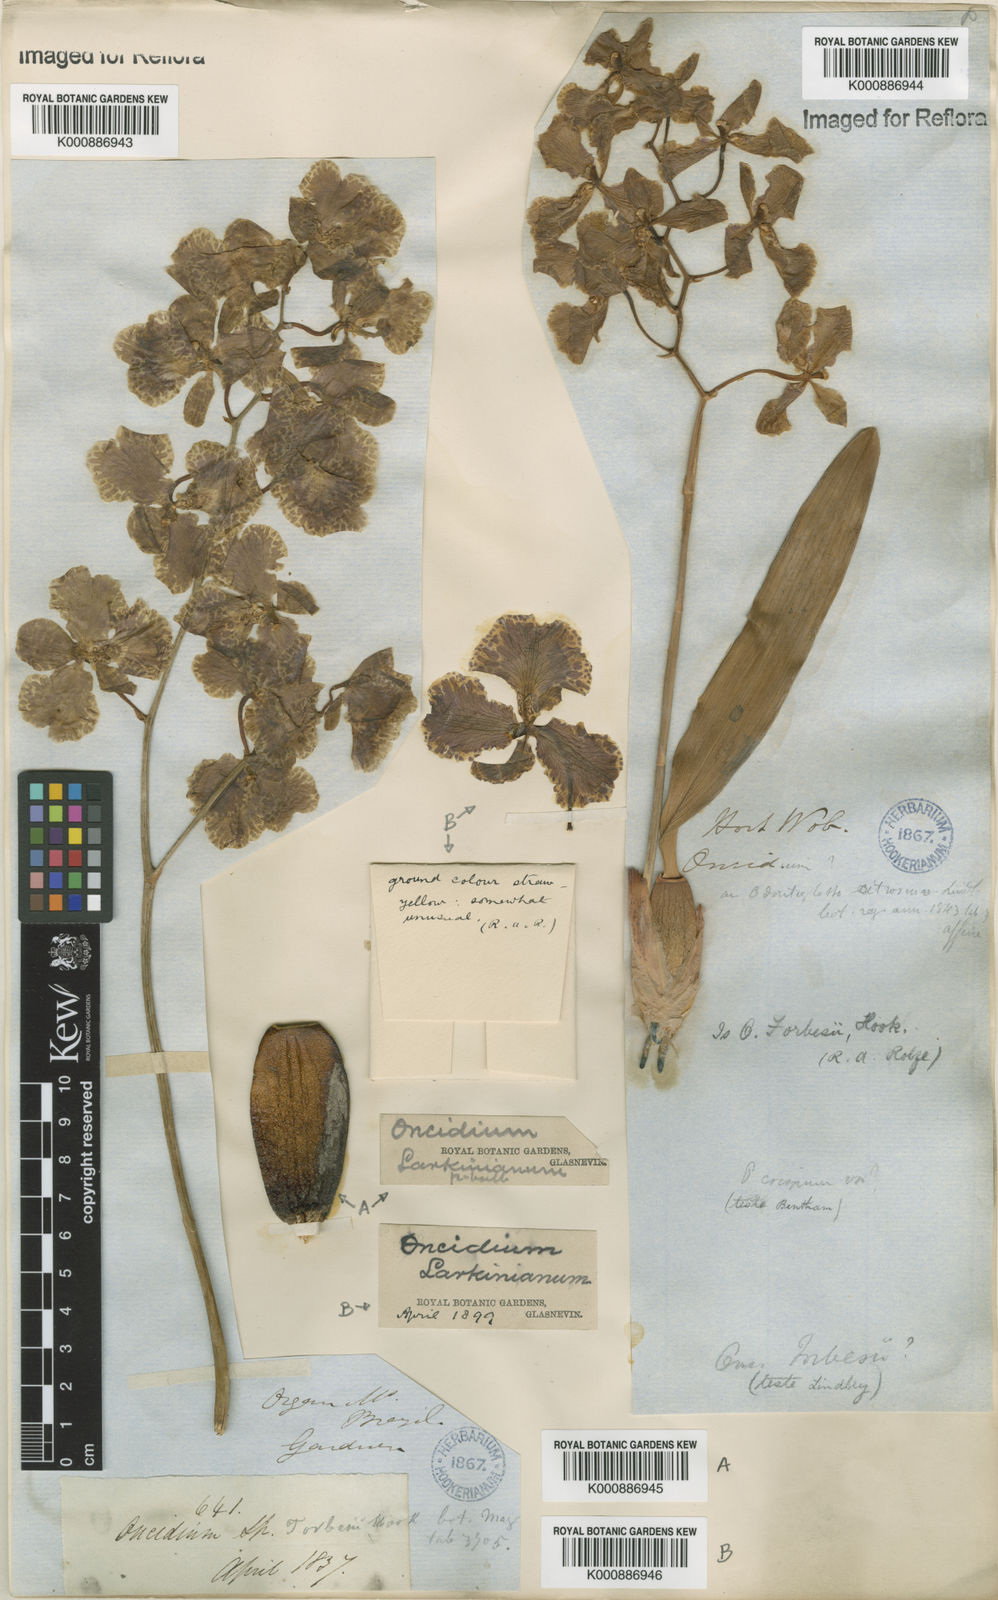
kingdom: Plantae
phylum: Tracheophyta
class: Liliopsida
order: Asparagales
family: Orchidaceae
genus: Gomesa
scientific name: Gomesa forbesii
